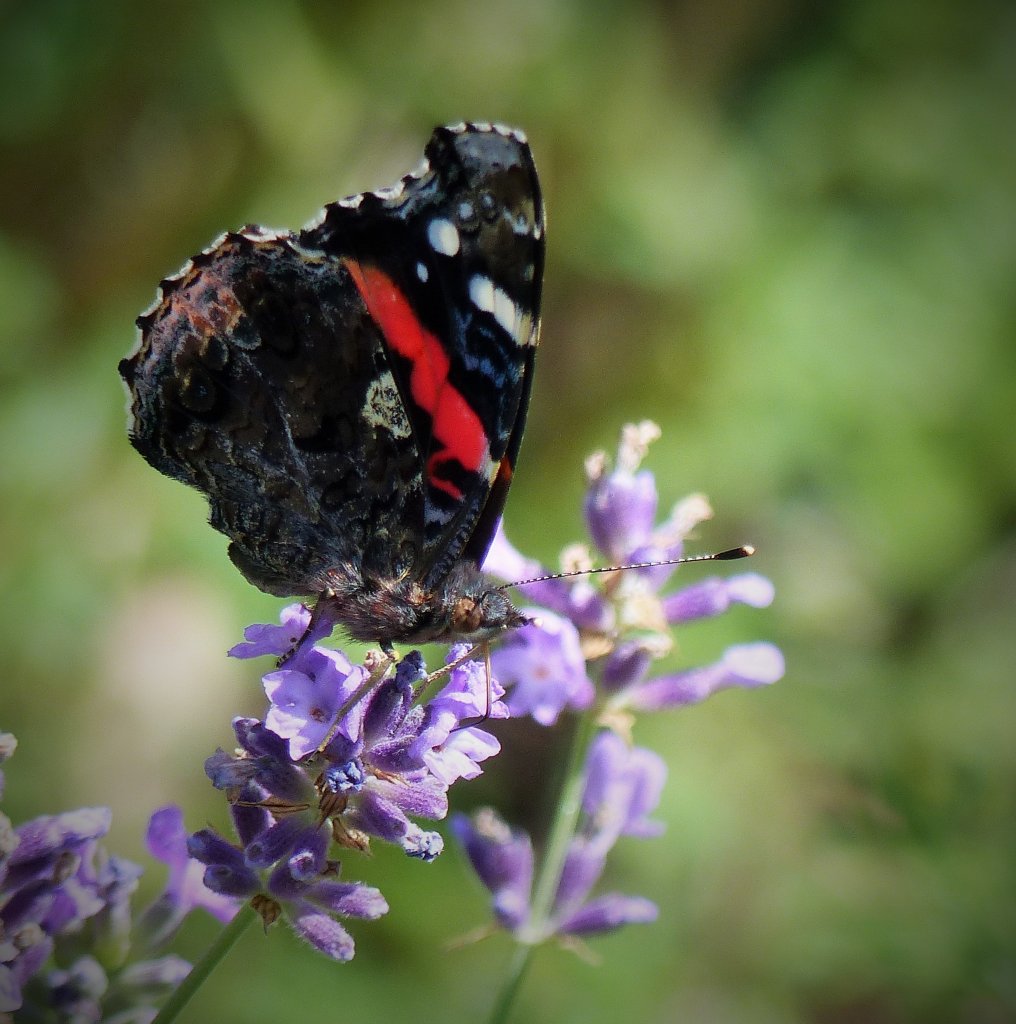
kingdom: Animalia
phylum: Arthropoda
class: Insecta
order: Lepidoptera
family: Nymphalidae
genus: Vanessa
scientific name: Vanessa atalanta
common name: Red Admiral
